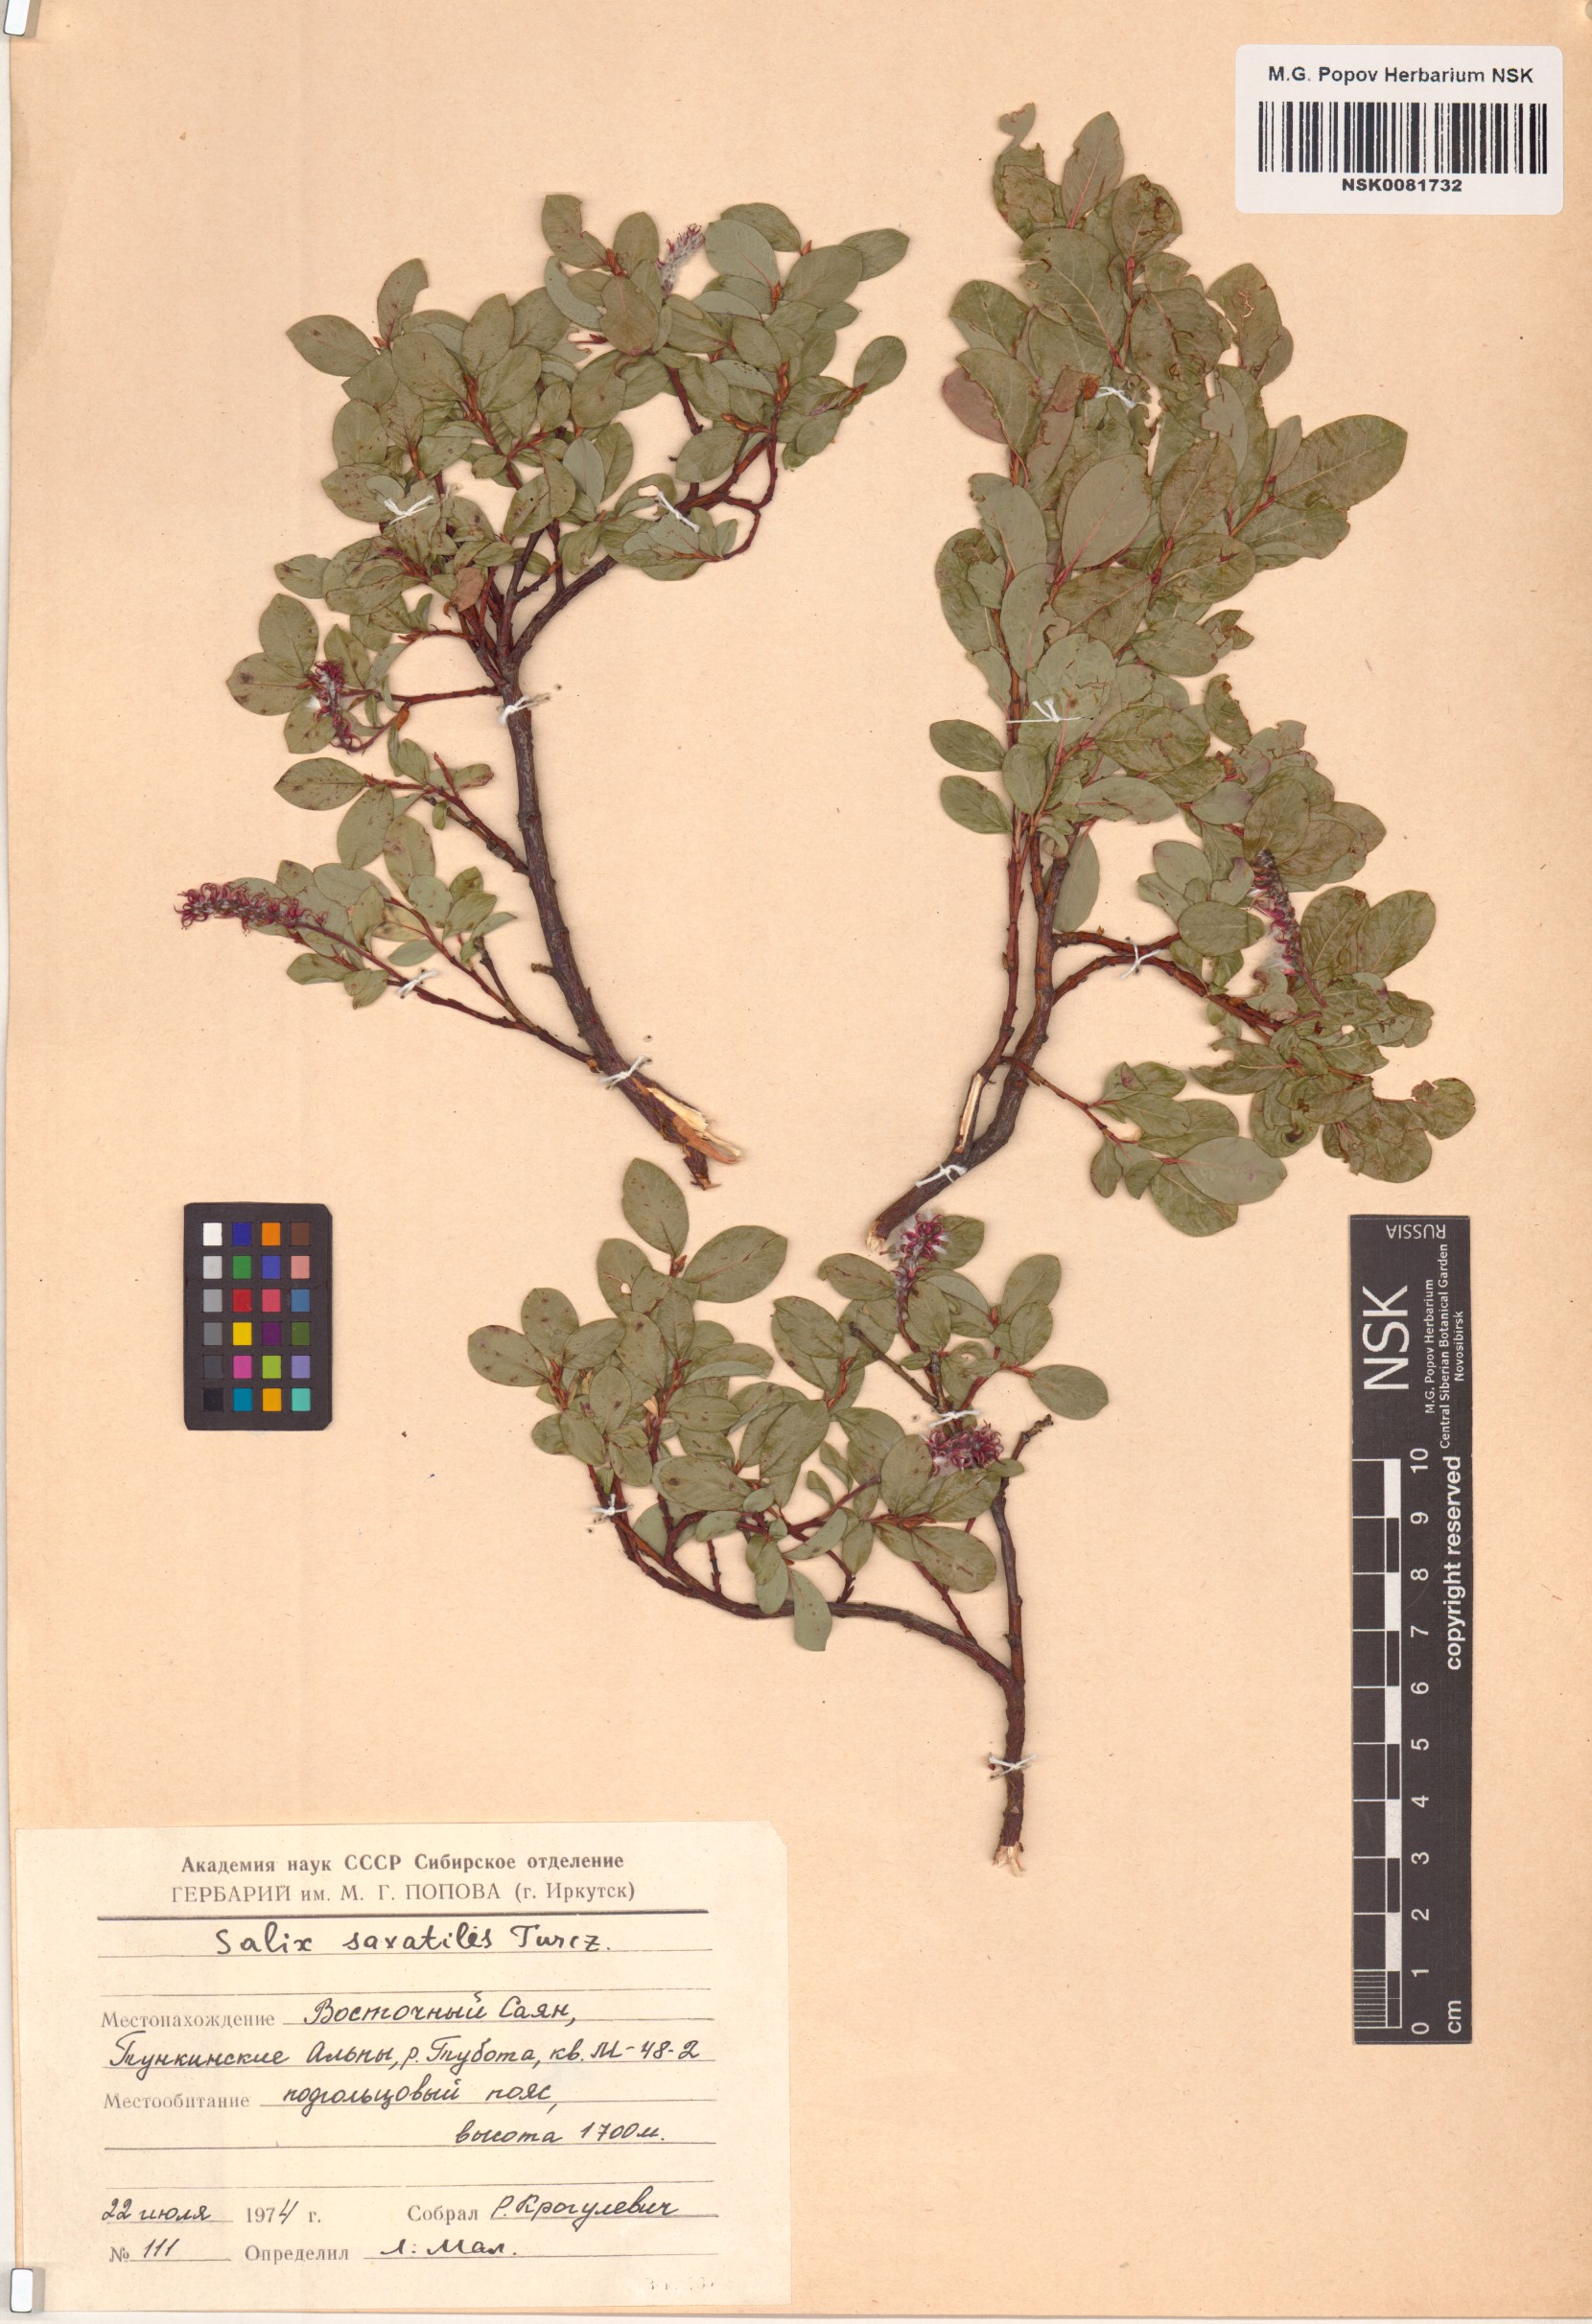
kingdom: Plantae
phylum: Tracheophyta
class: Magnoliopsida
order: Malpighiales
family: Salicaceae
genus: Salix
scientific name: Salix saxatilis
